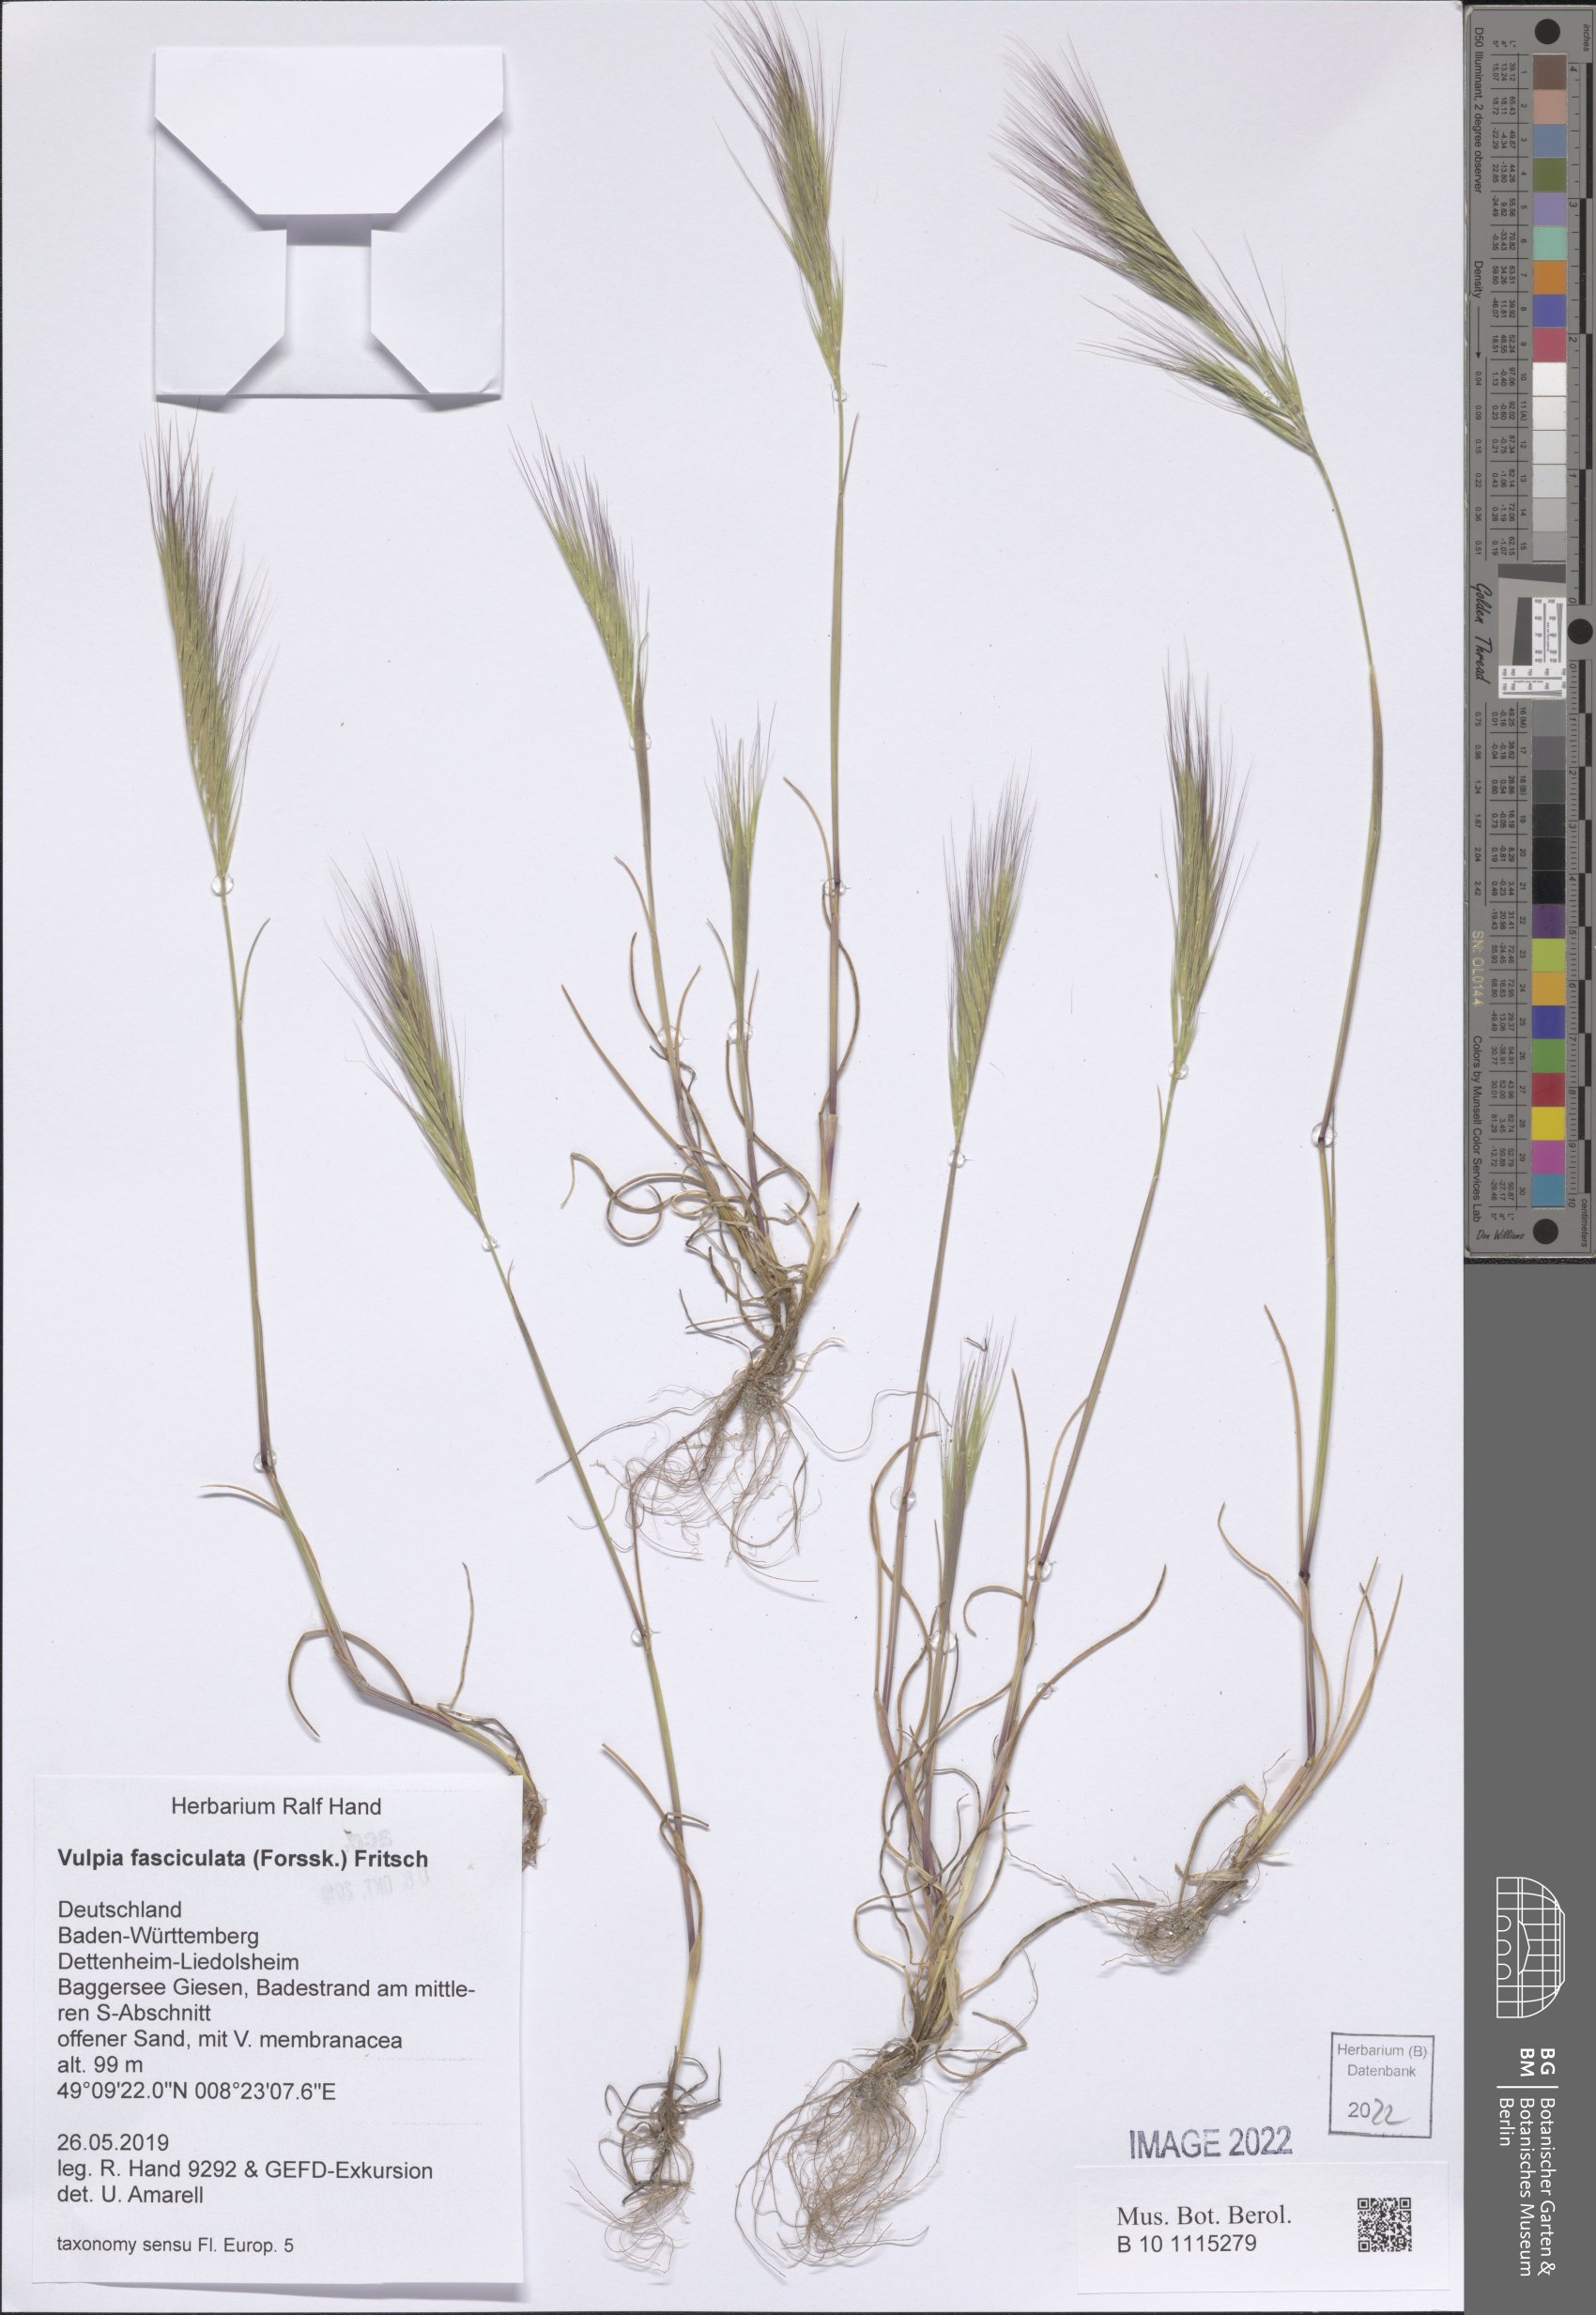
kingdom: Plantae
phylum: Tracheophyta
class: Liliopsida
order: Poales
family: Poaceae
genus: Festuca
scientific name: Festuca fasciculata
